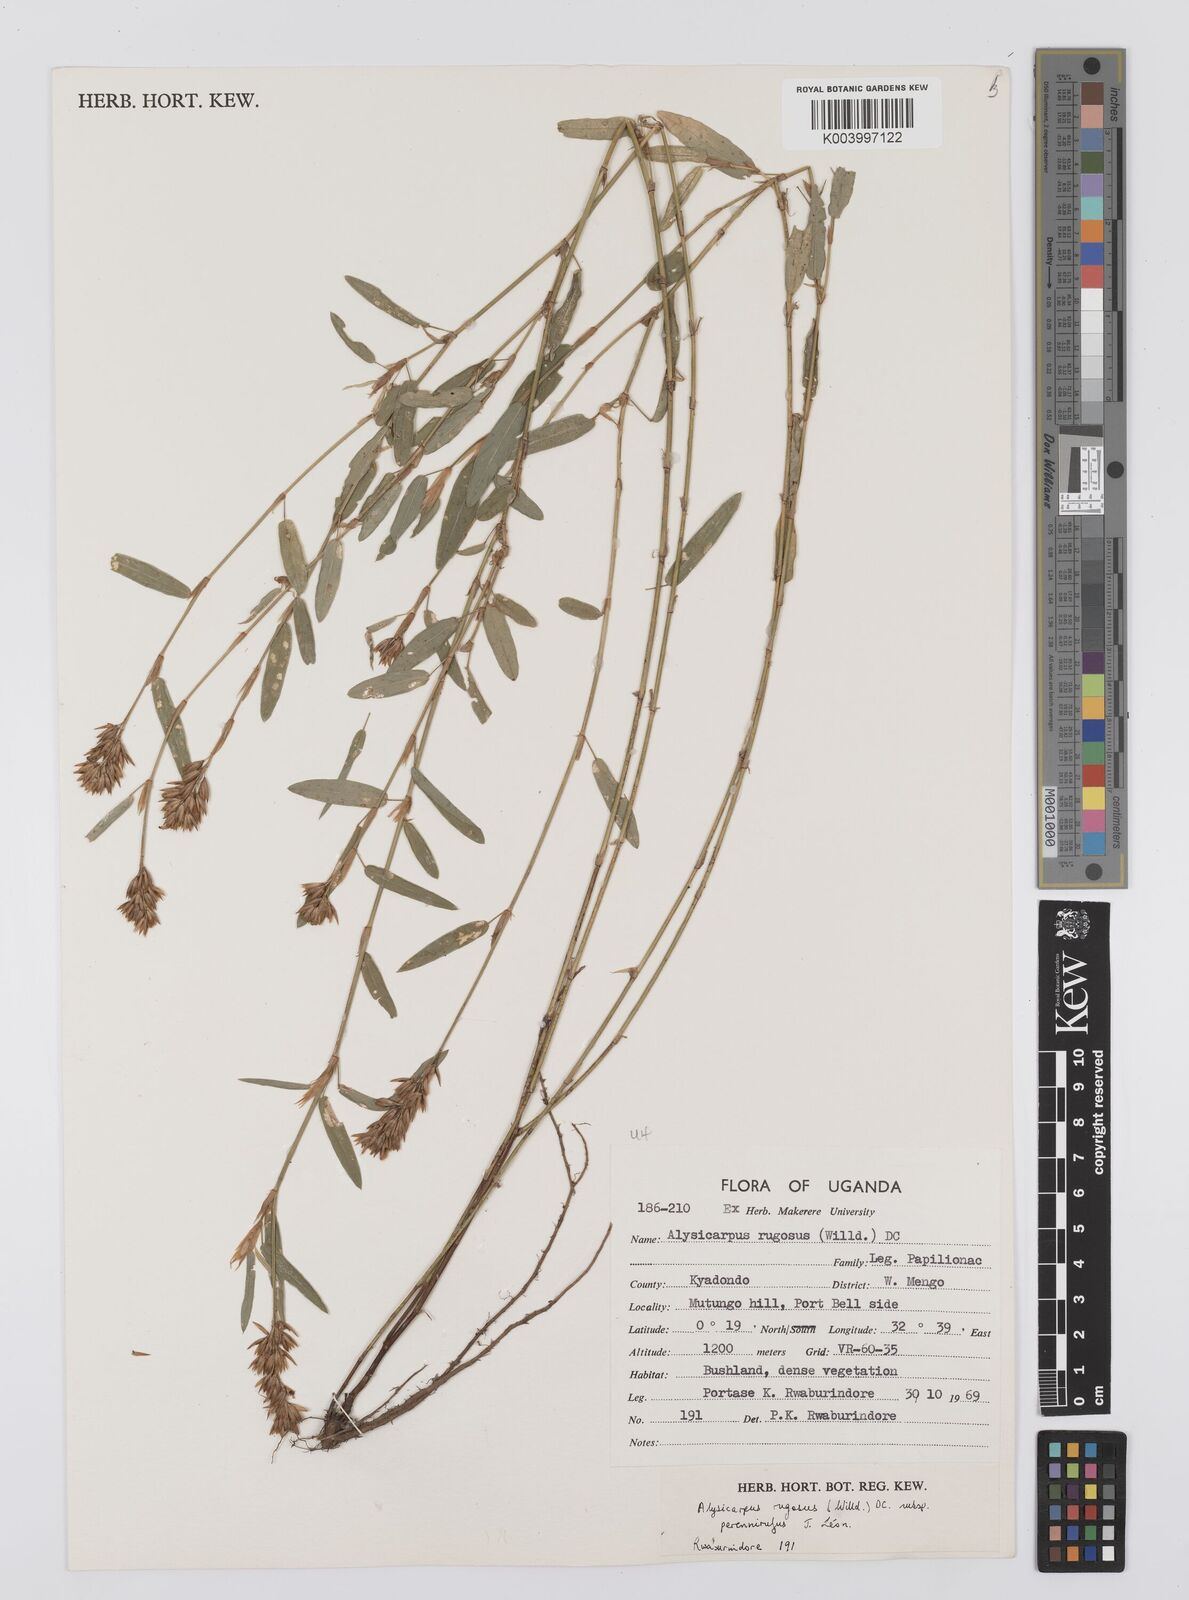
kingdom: Plantae
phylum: Tracheophyta
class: Magnoliopsida
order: Fabales
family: Fabaceae
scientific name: Fabaceae
